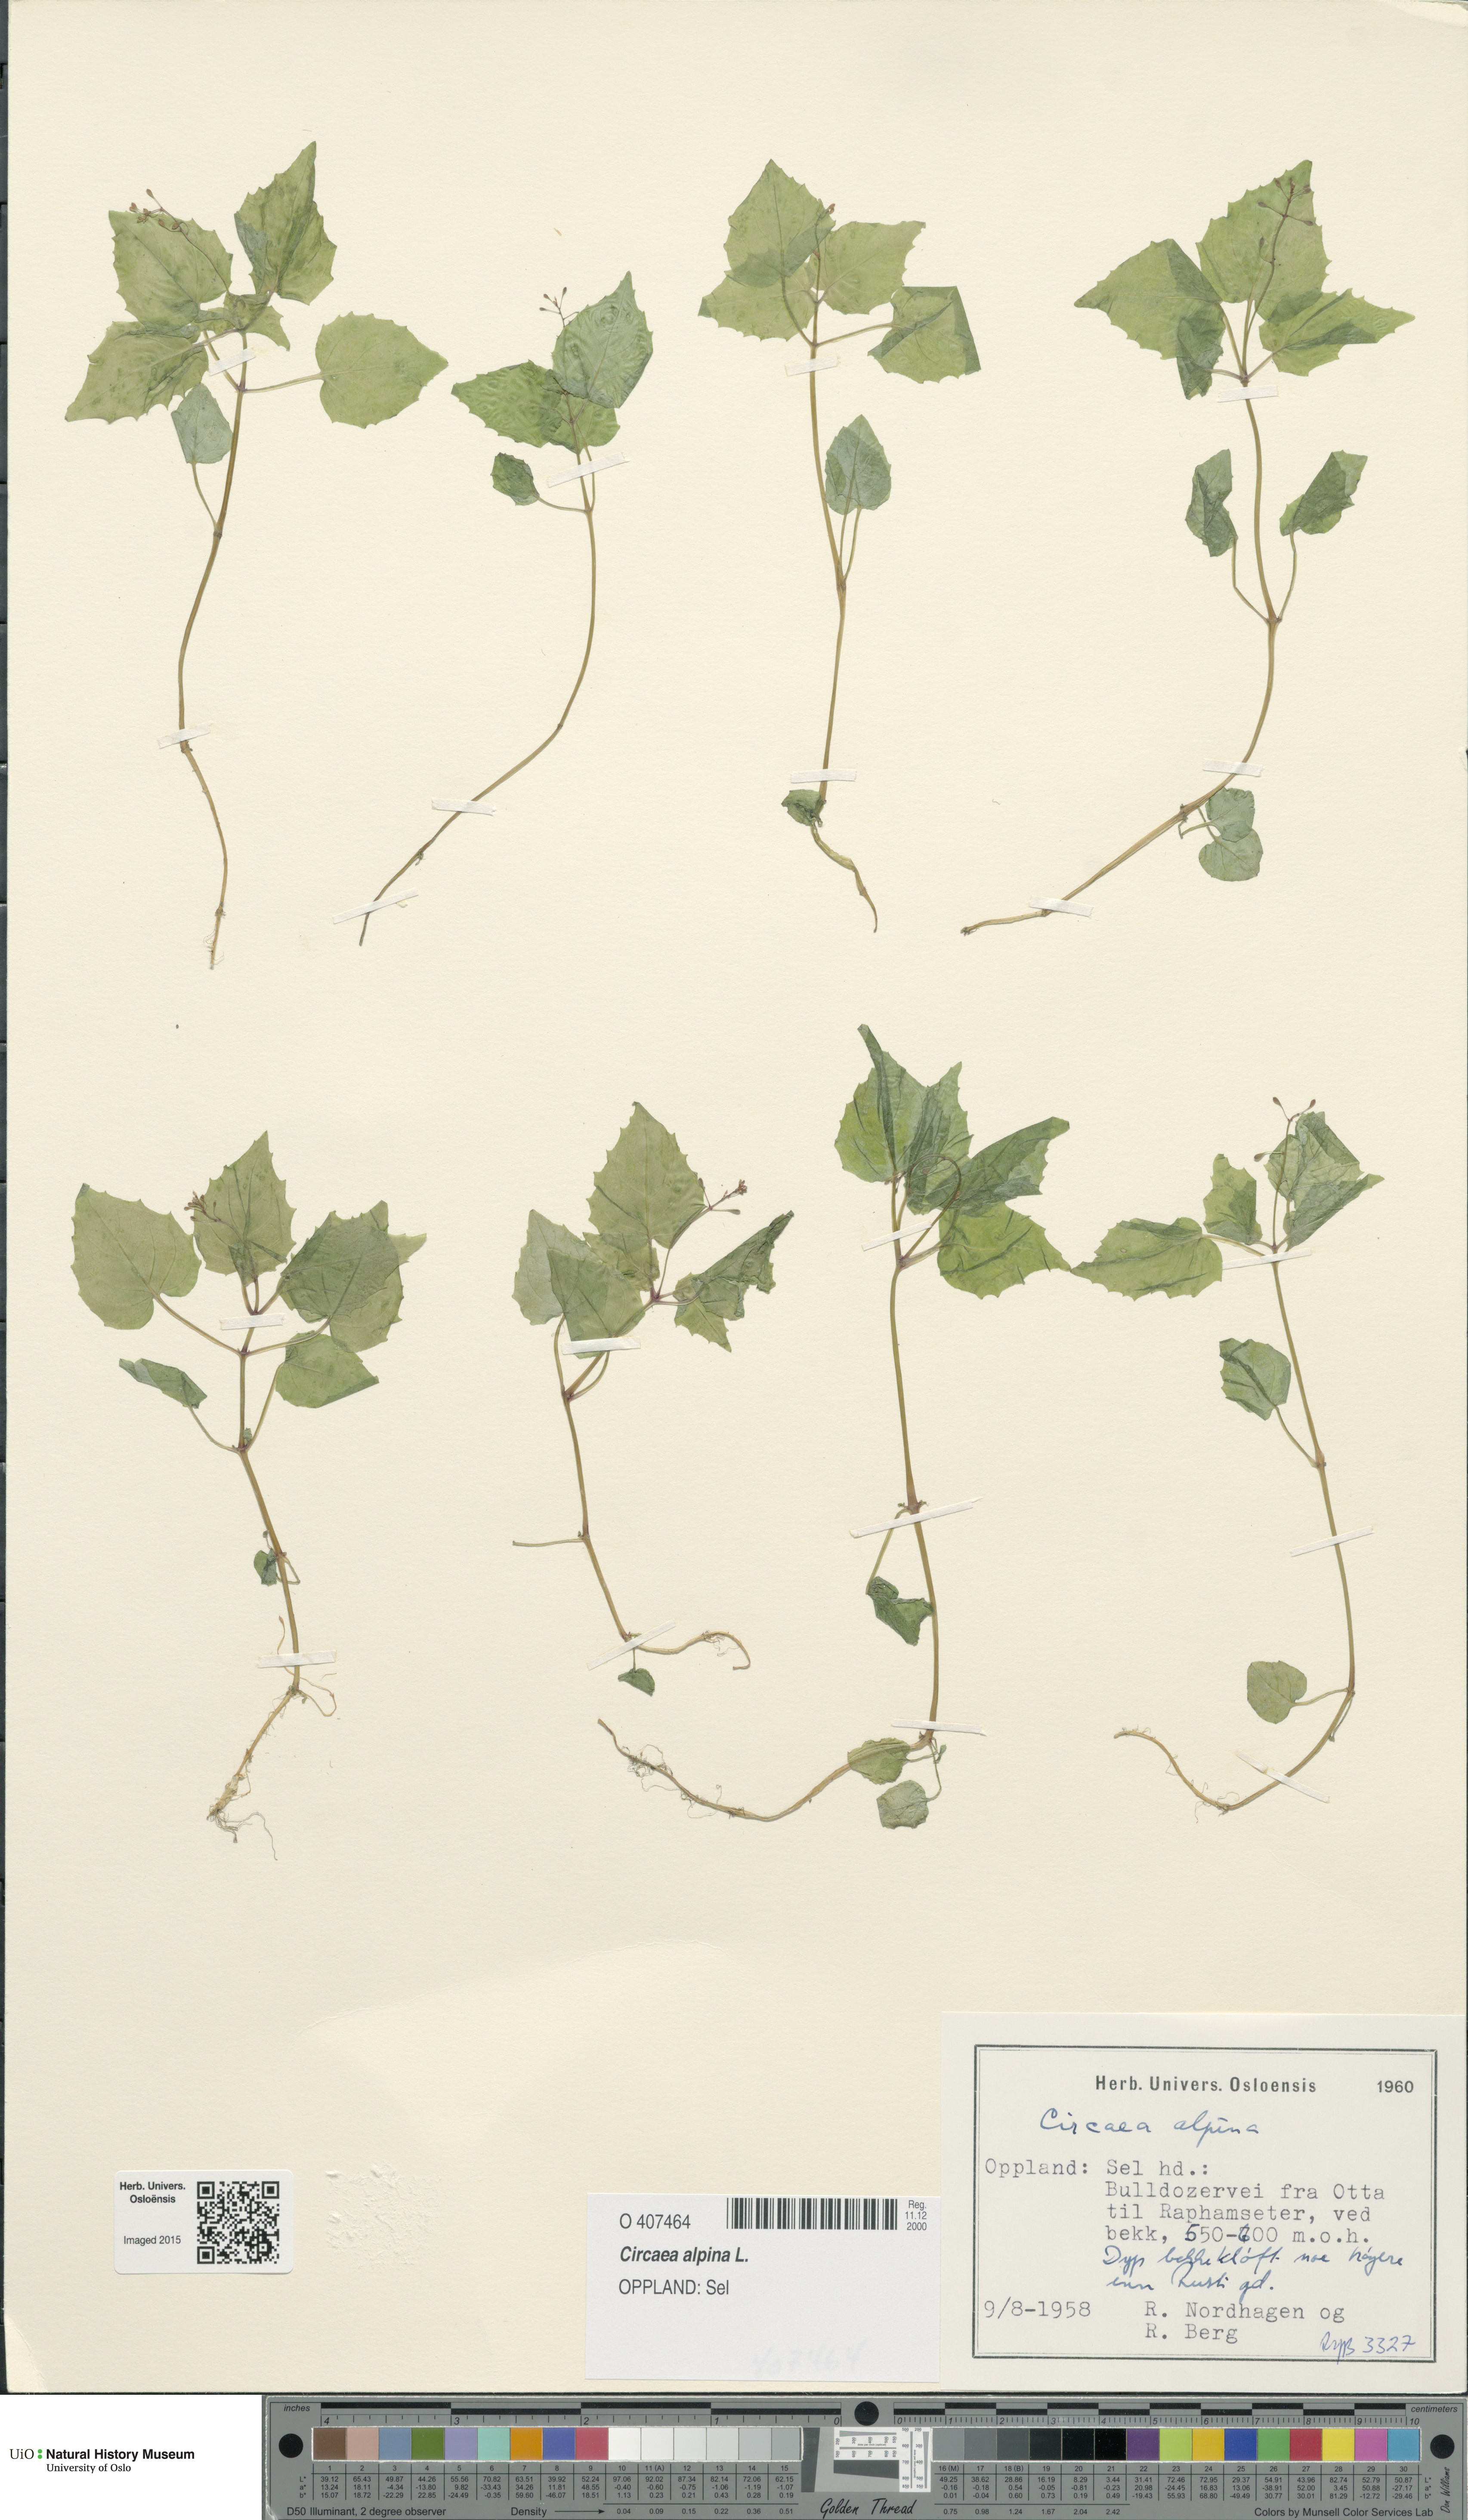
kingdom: Plantae
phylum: Tracheophyta
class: Magnoliopsida
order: Myrtales
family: Onagraceae
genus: Circaea
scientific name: Circaea alpina
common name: Alpine enchanter's-nightshade
